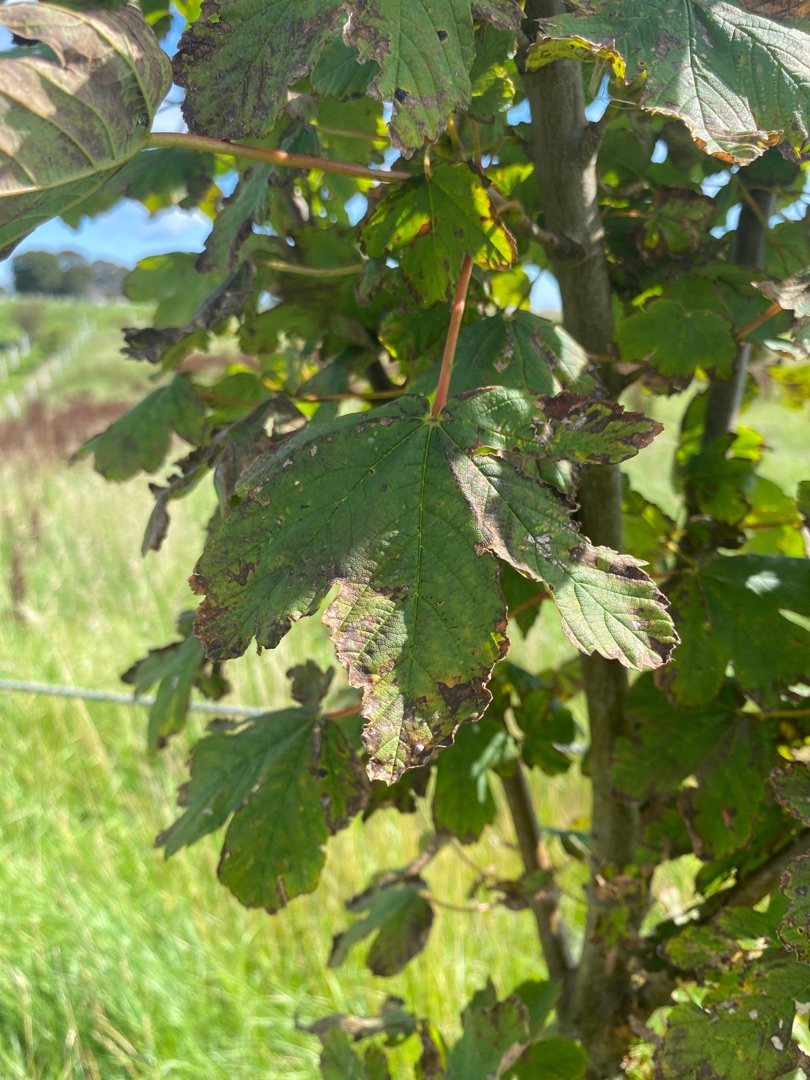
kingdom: Plantae
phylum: Tracheophyta
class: Magnoliopsida
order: Sapindales
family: Sapindaceae
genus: Acer
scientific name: Acer pseudoplatanus
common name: Ahorn
